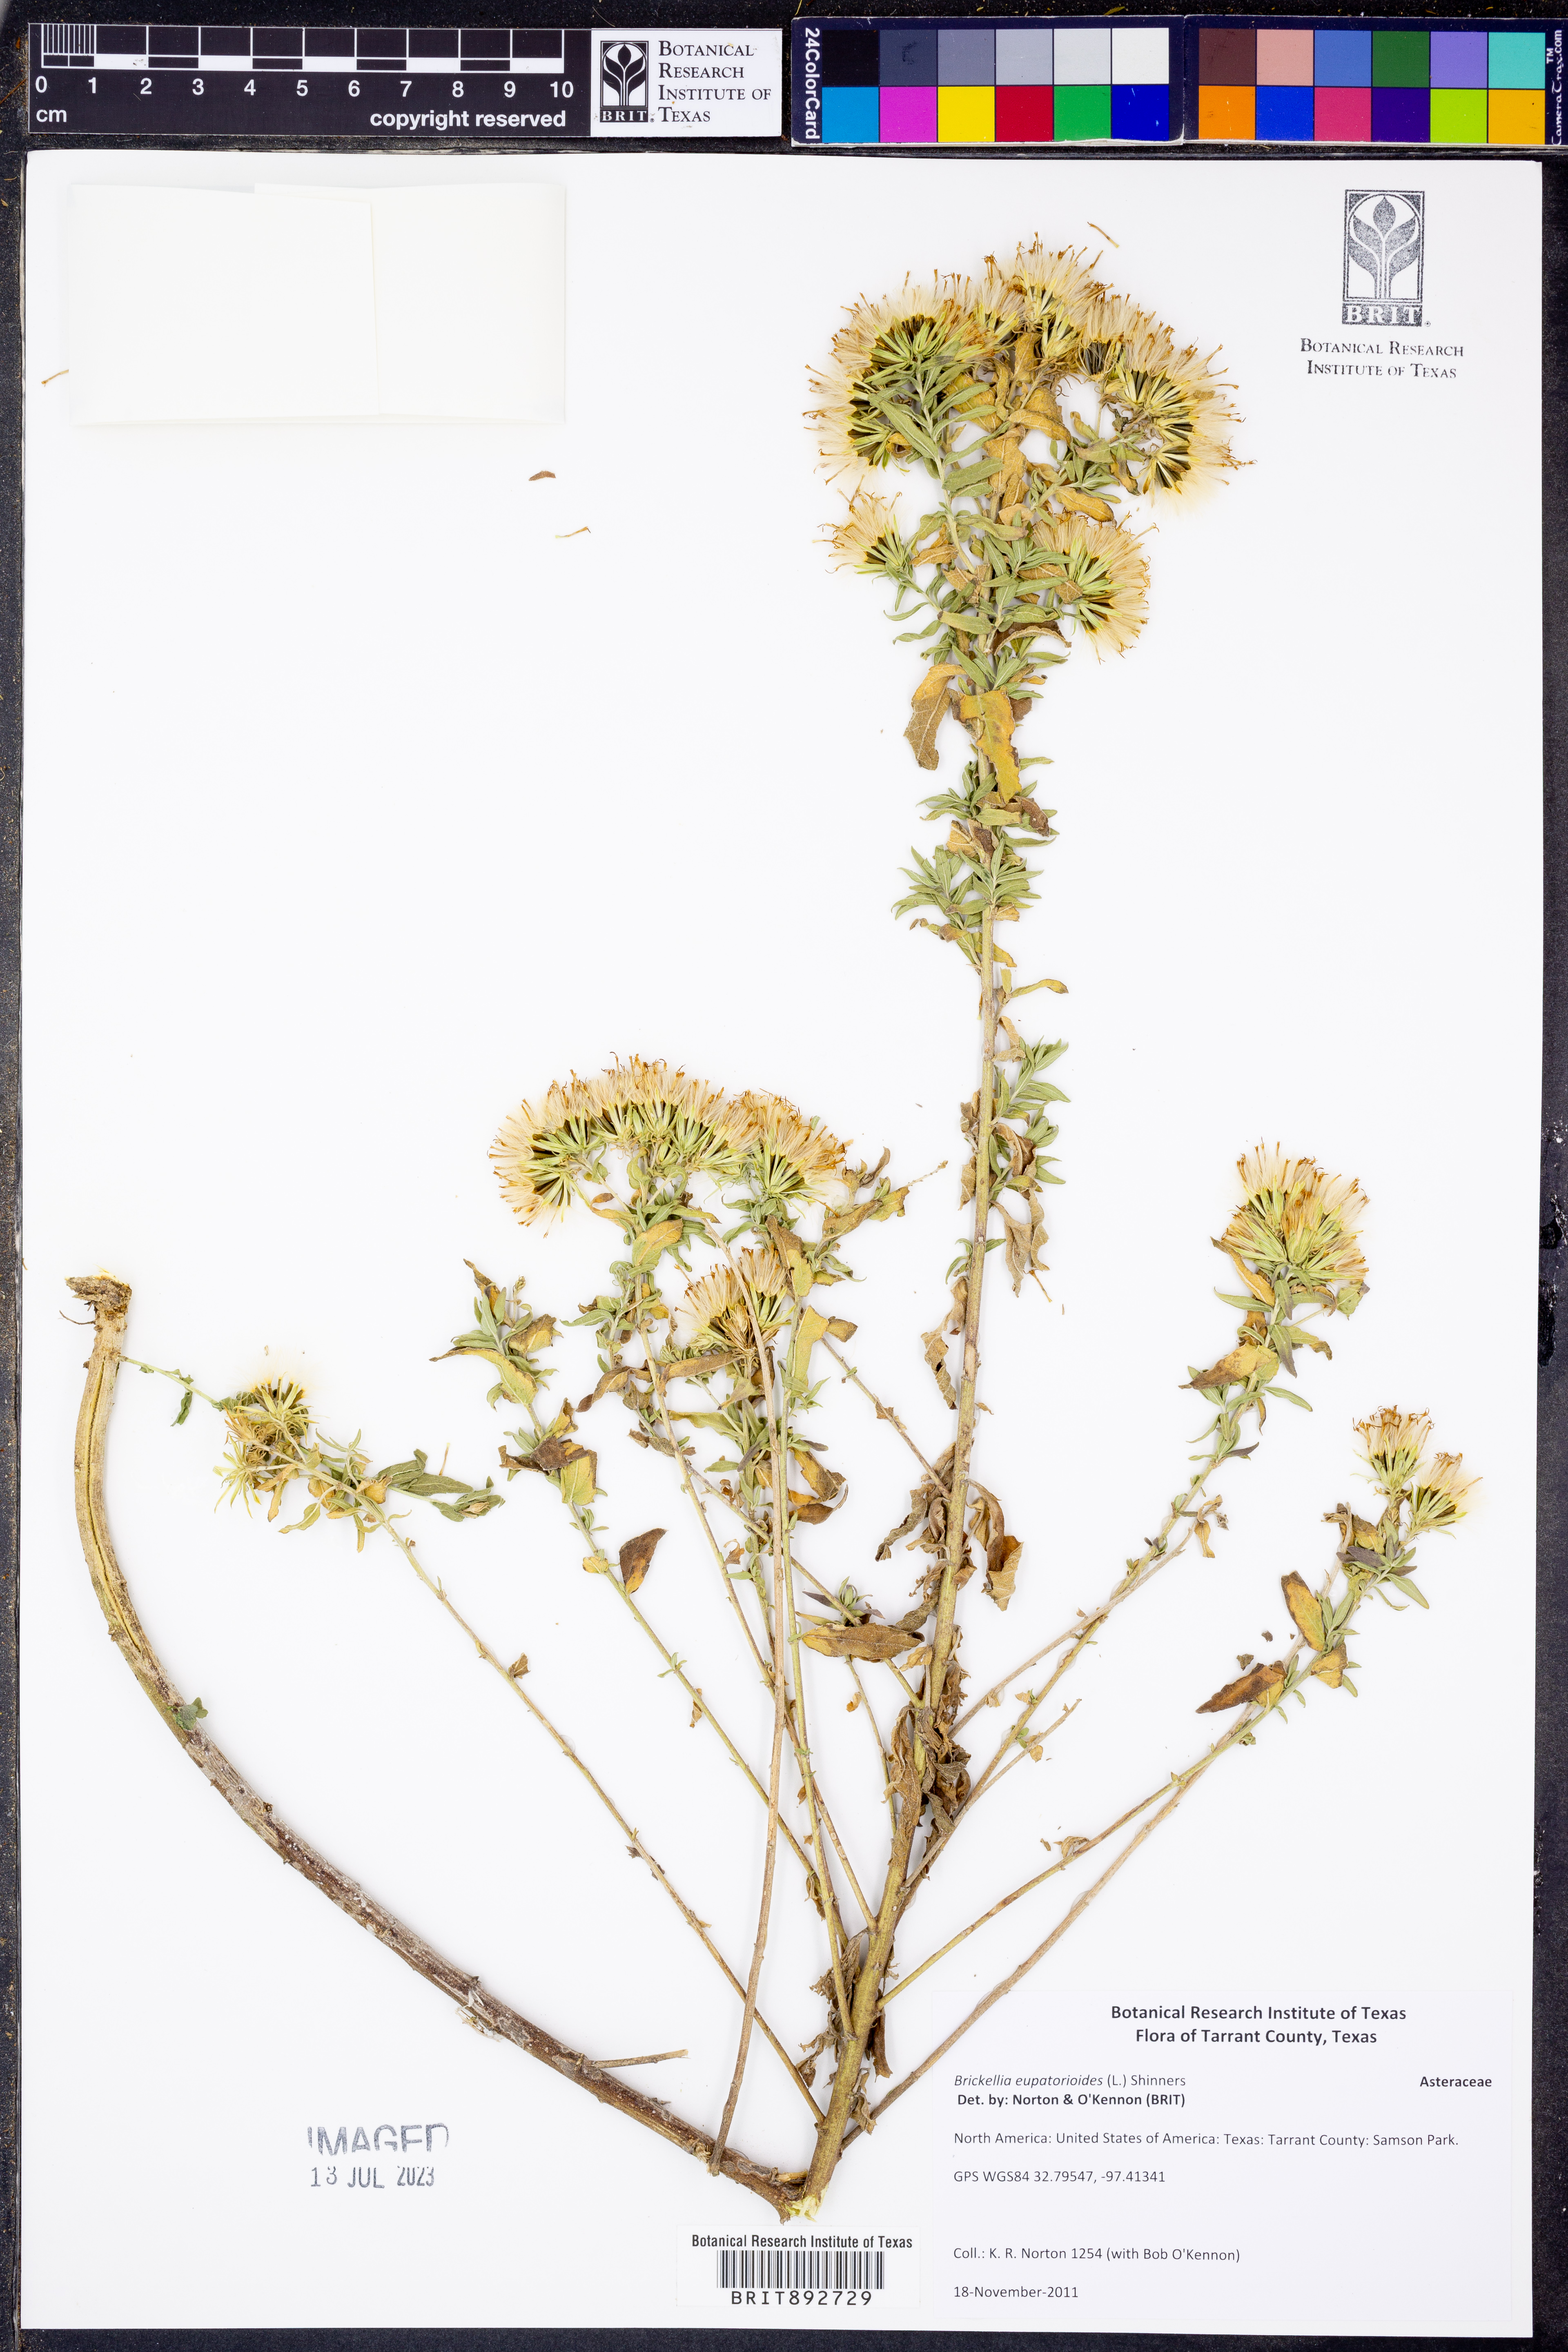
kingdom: Plantae
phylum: Tracheophyta
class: Magnoliopsida
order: Asterales
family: Asteraceae
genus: Brickellia
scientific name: Brickellia eupatorioides
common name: False boneset
